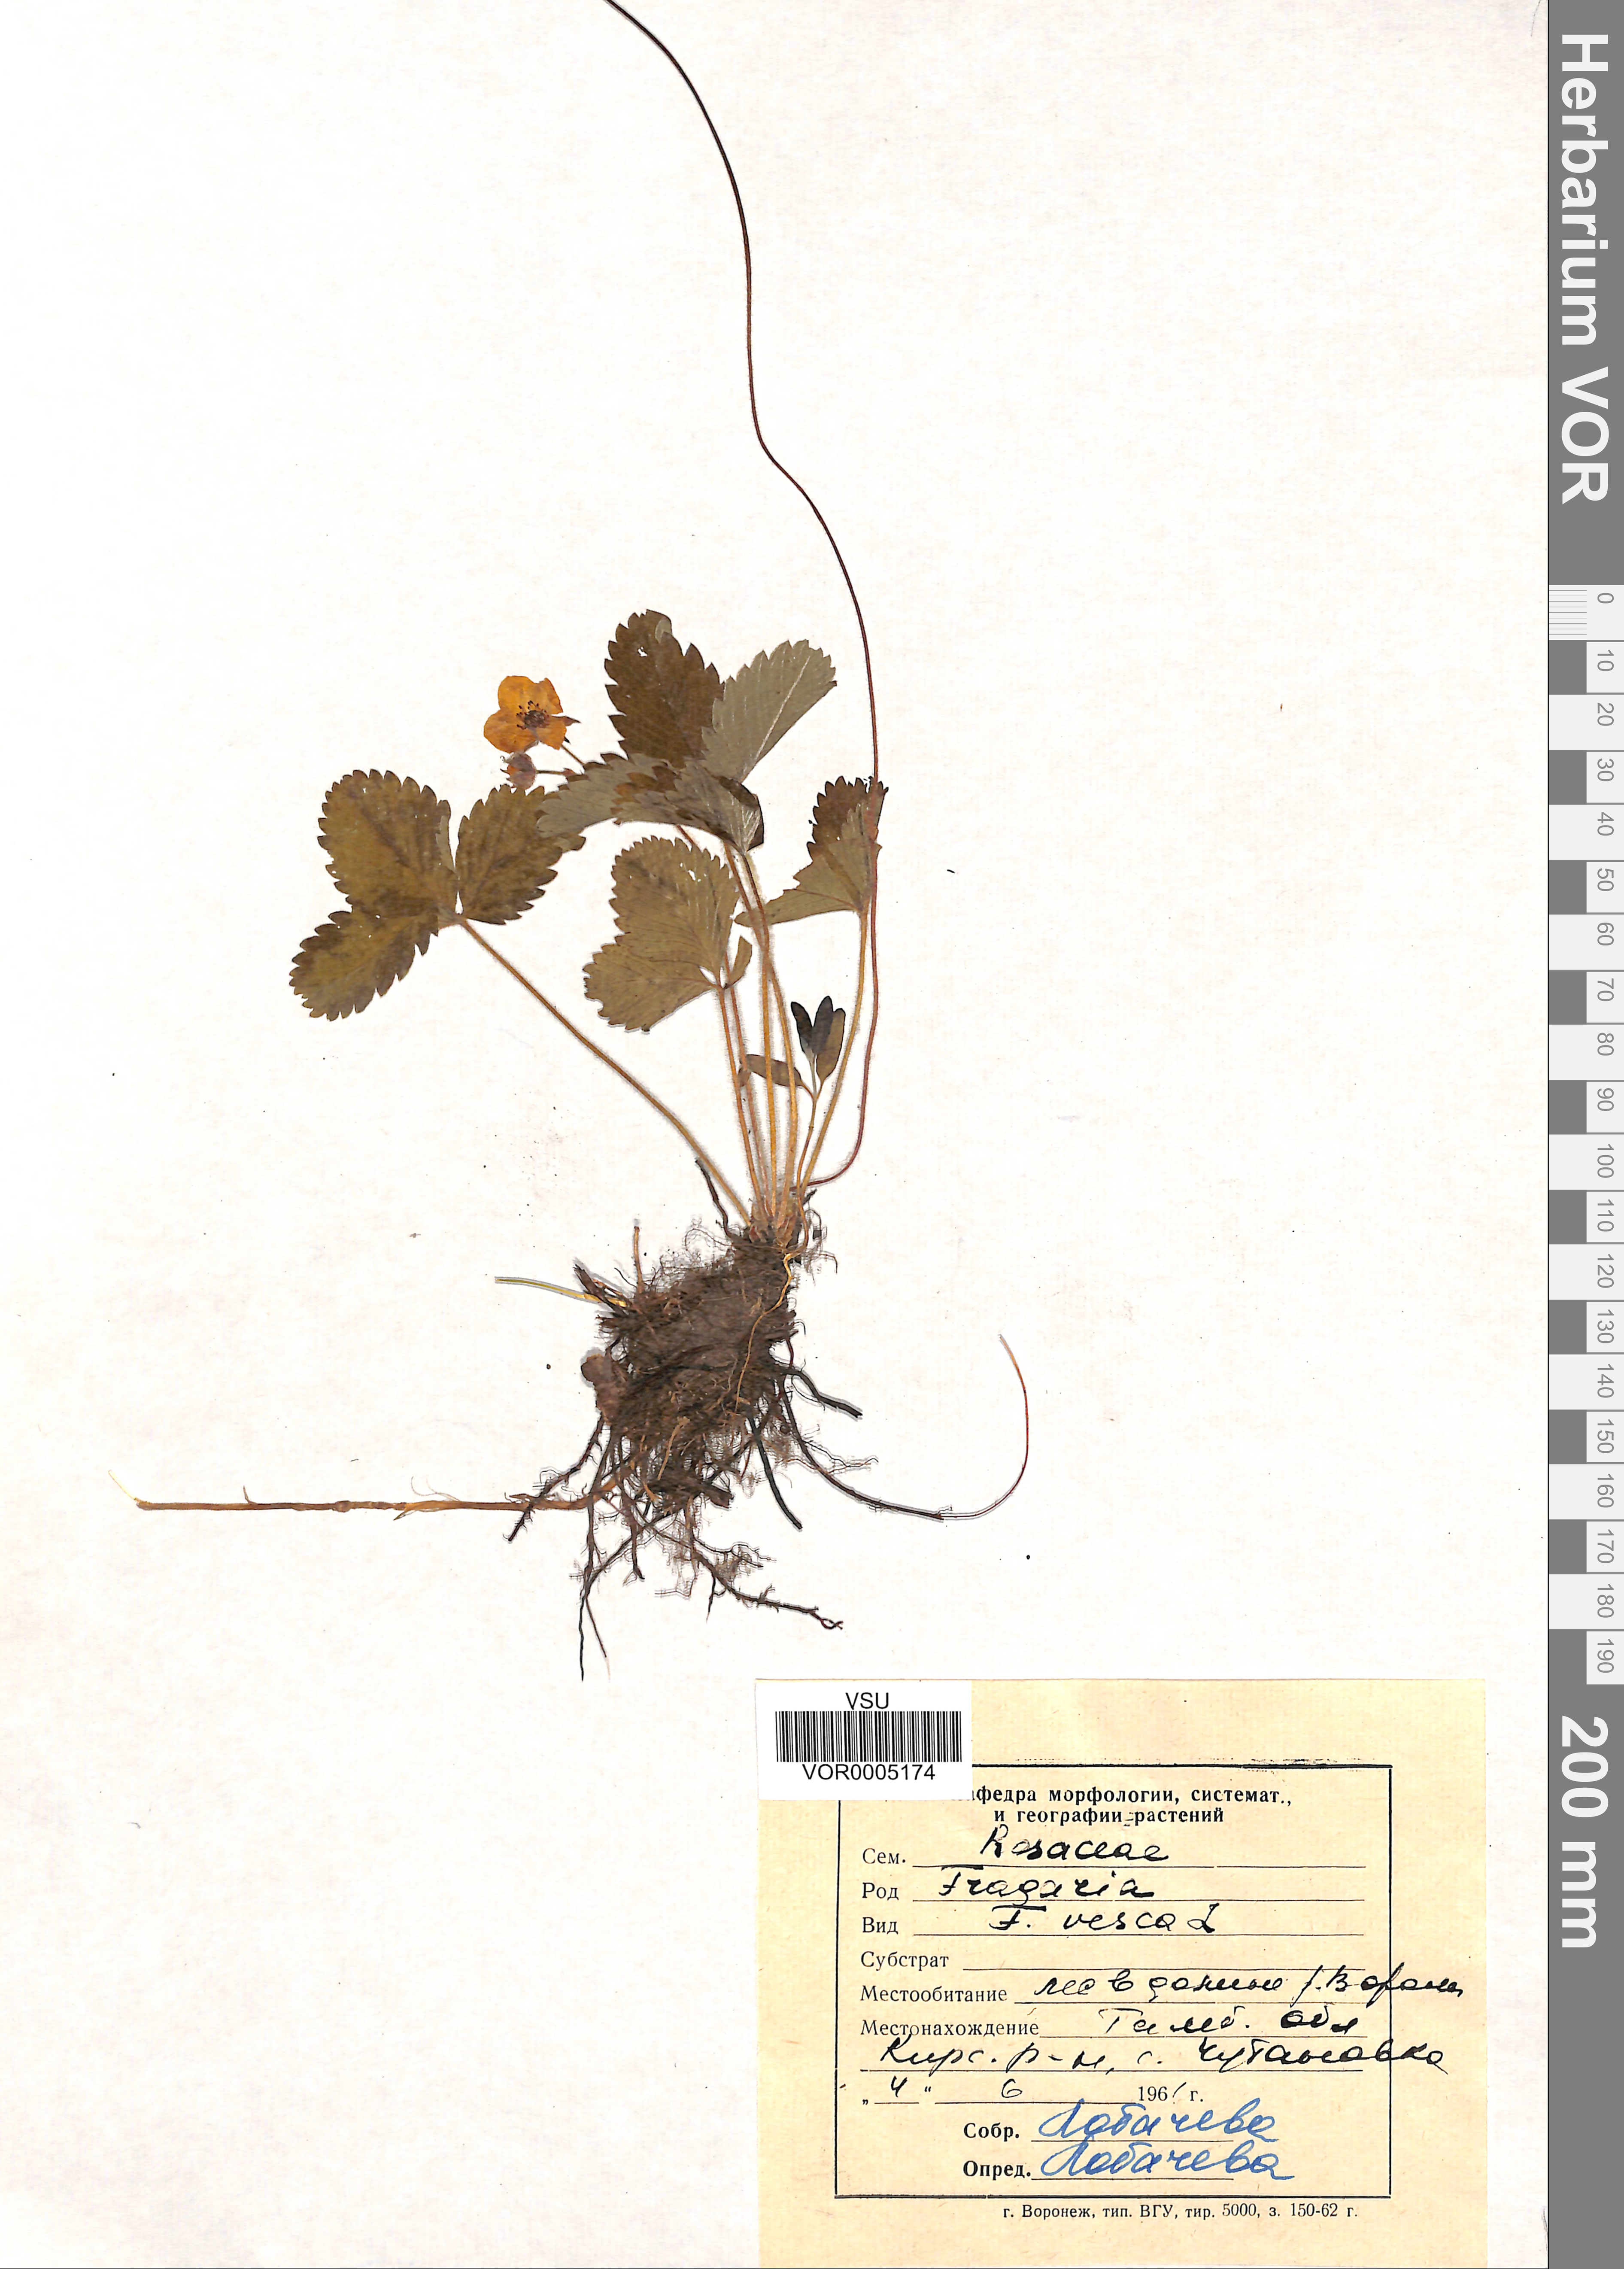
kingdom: Plantae
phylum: Tracheophyta
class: Magnoliopsida
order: Rosales
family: Rosaceae
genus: Fragaria
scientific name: Fragaria vesca
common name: Wild strawberry
